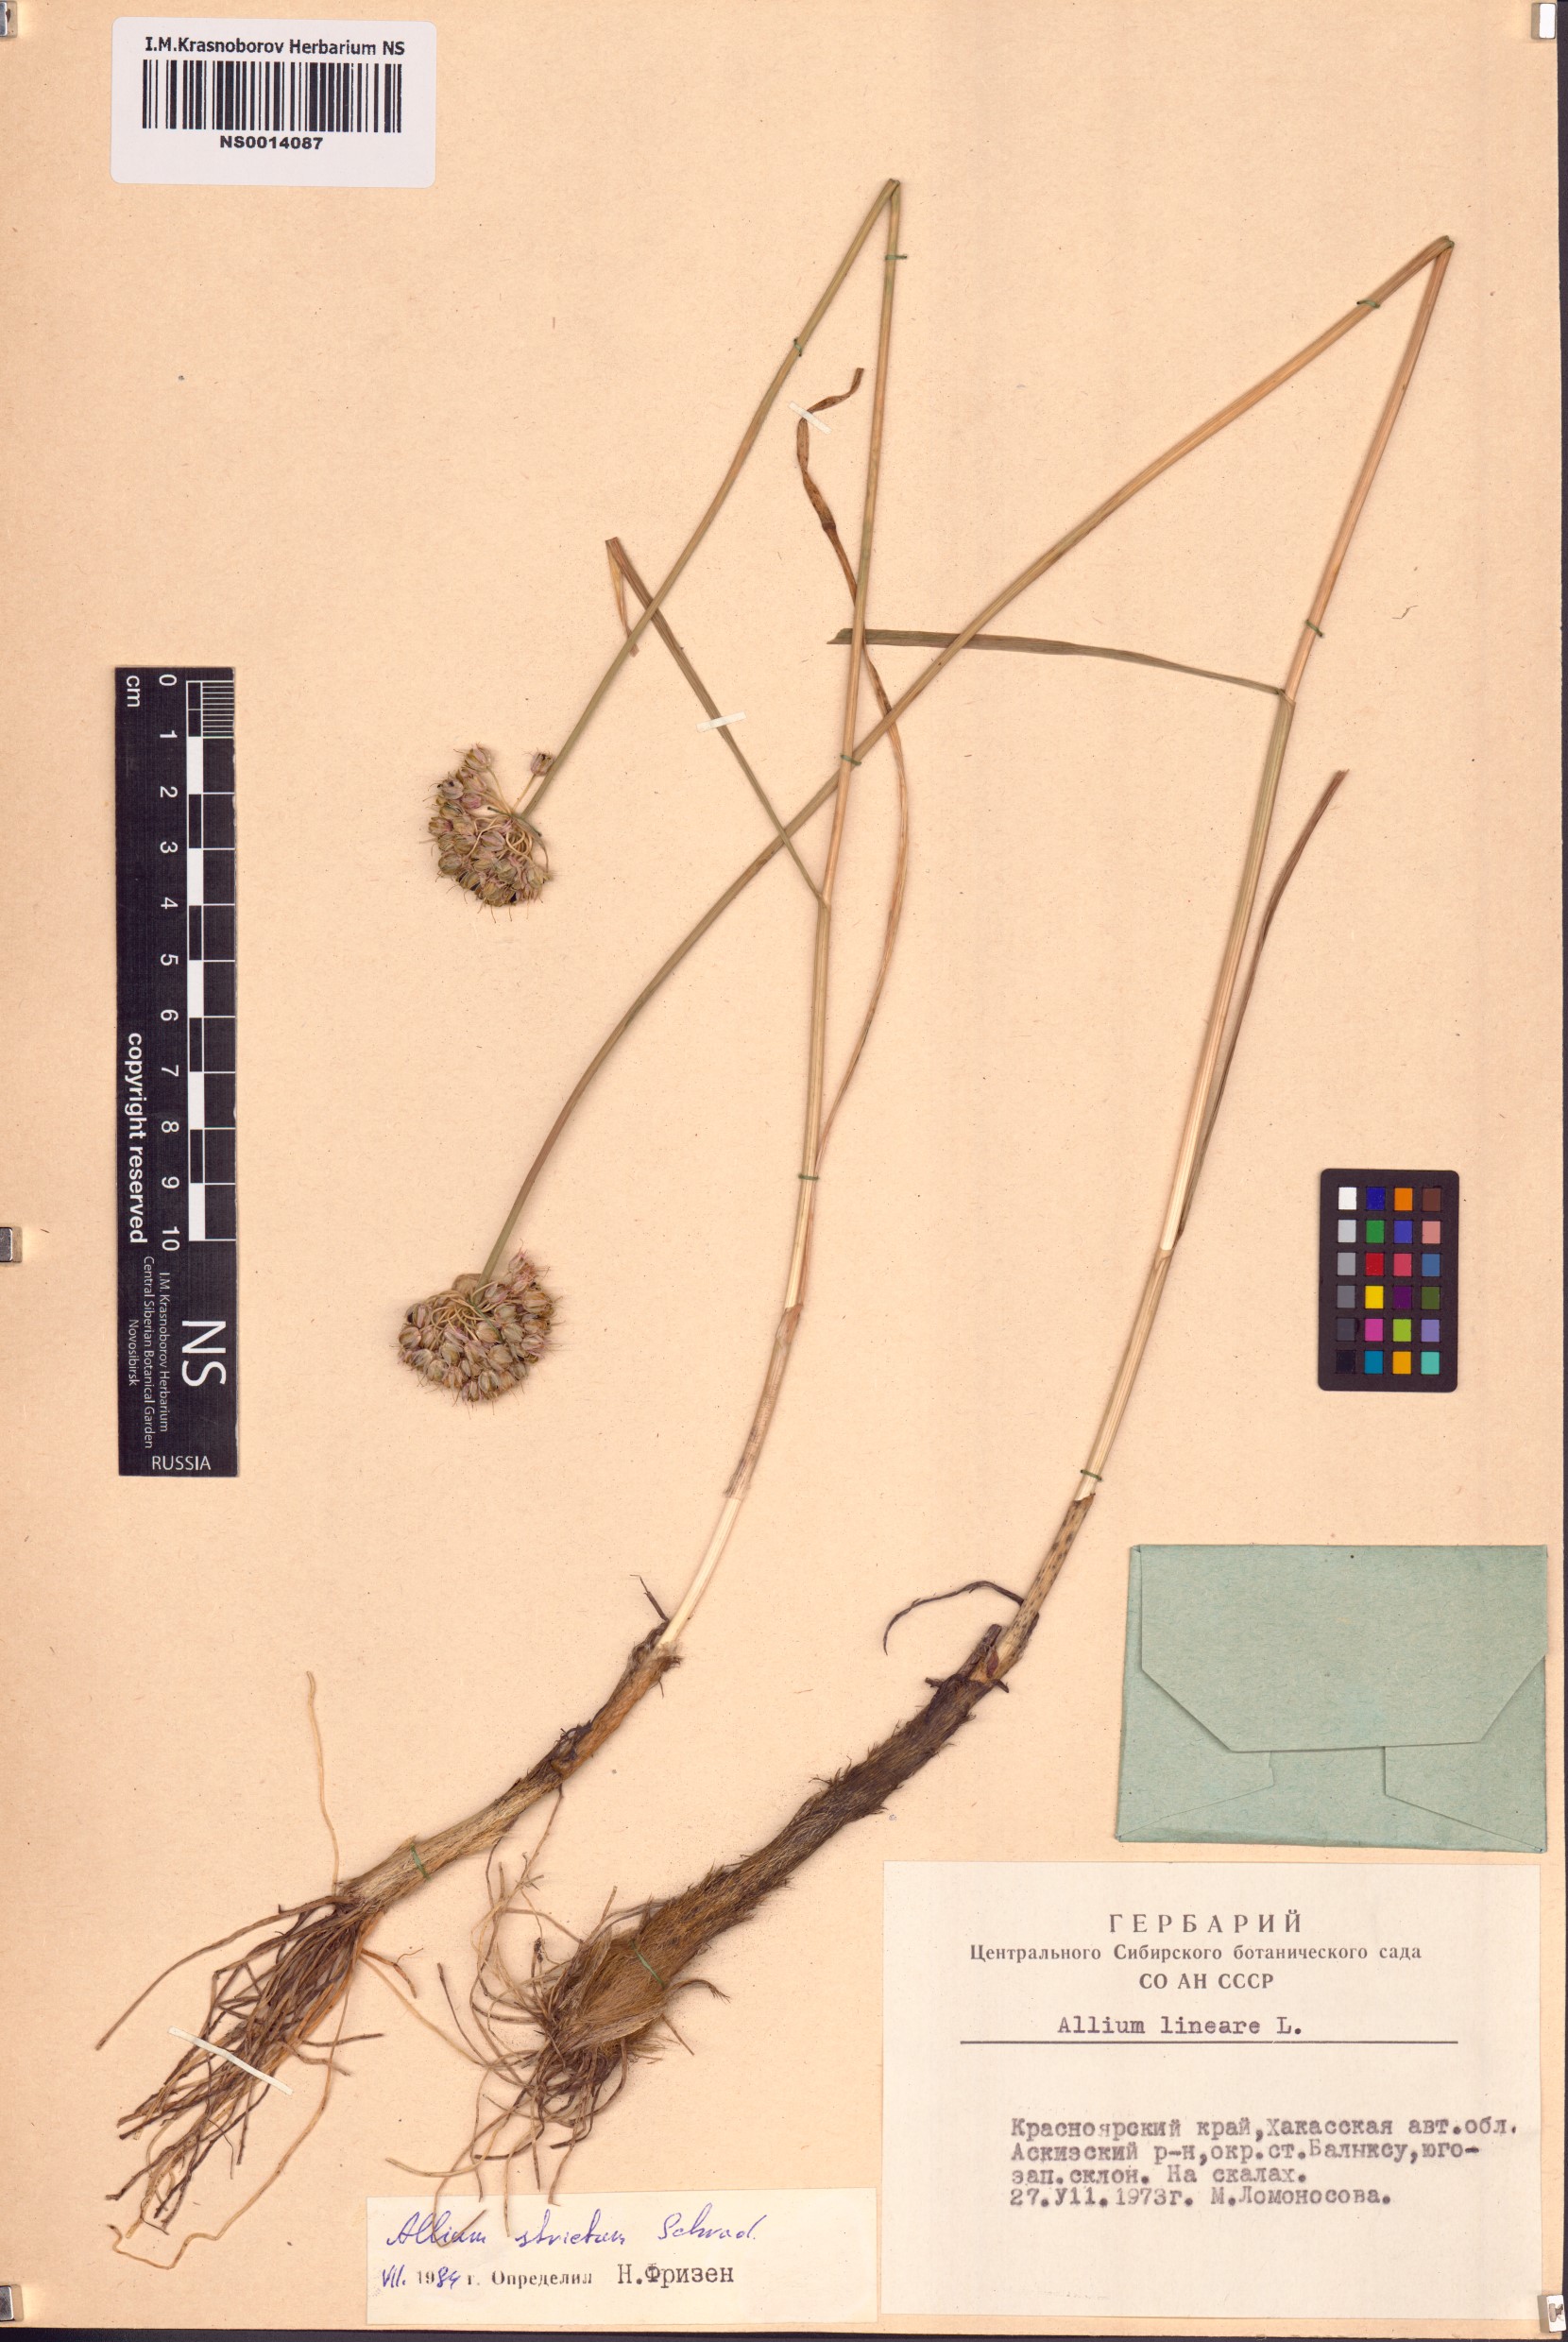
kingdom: Plantae
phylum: Tracheophyta
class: Liliopsida
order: Asparagales
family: Amaryllidaceae
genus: Allium
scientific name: Allium strictum
